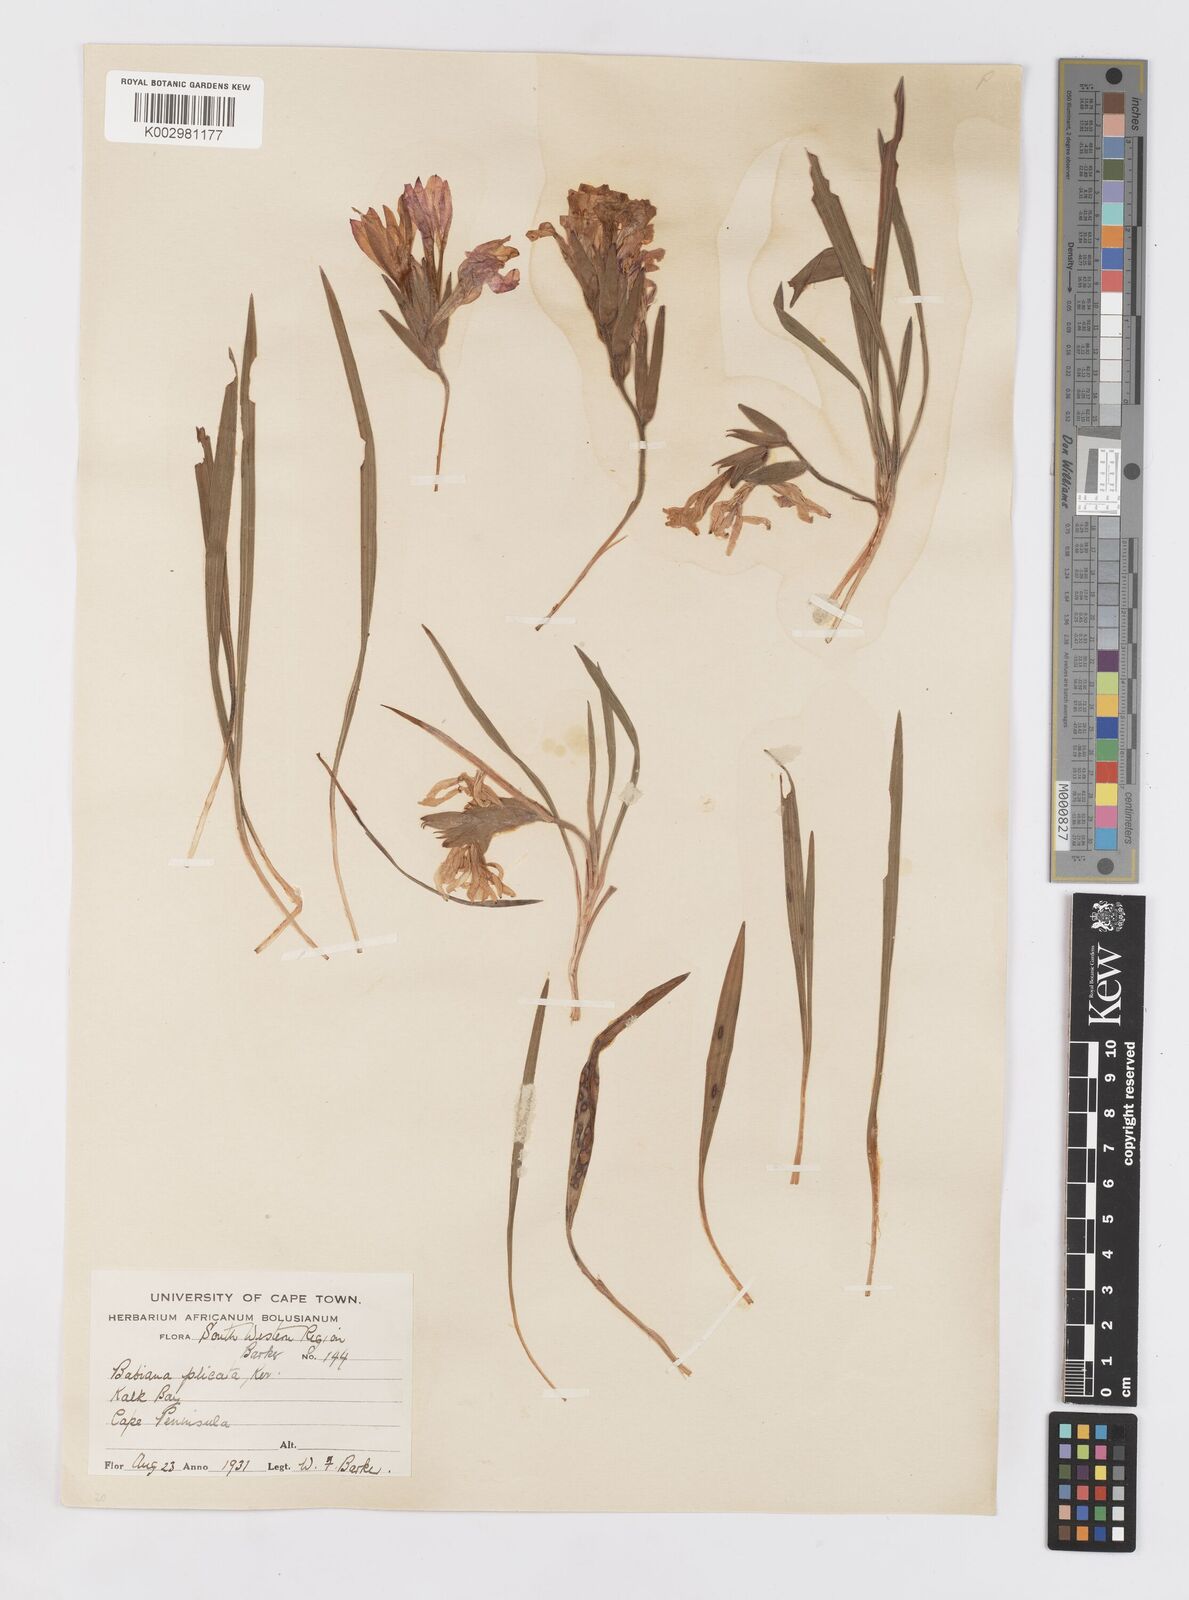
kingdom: Plantae
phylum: Tracheophyta
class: Liliopsida
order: Asparagales
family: Iridaceae
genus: Babiana
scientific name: Babiana fragrans
